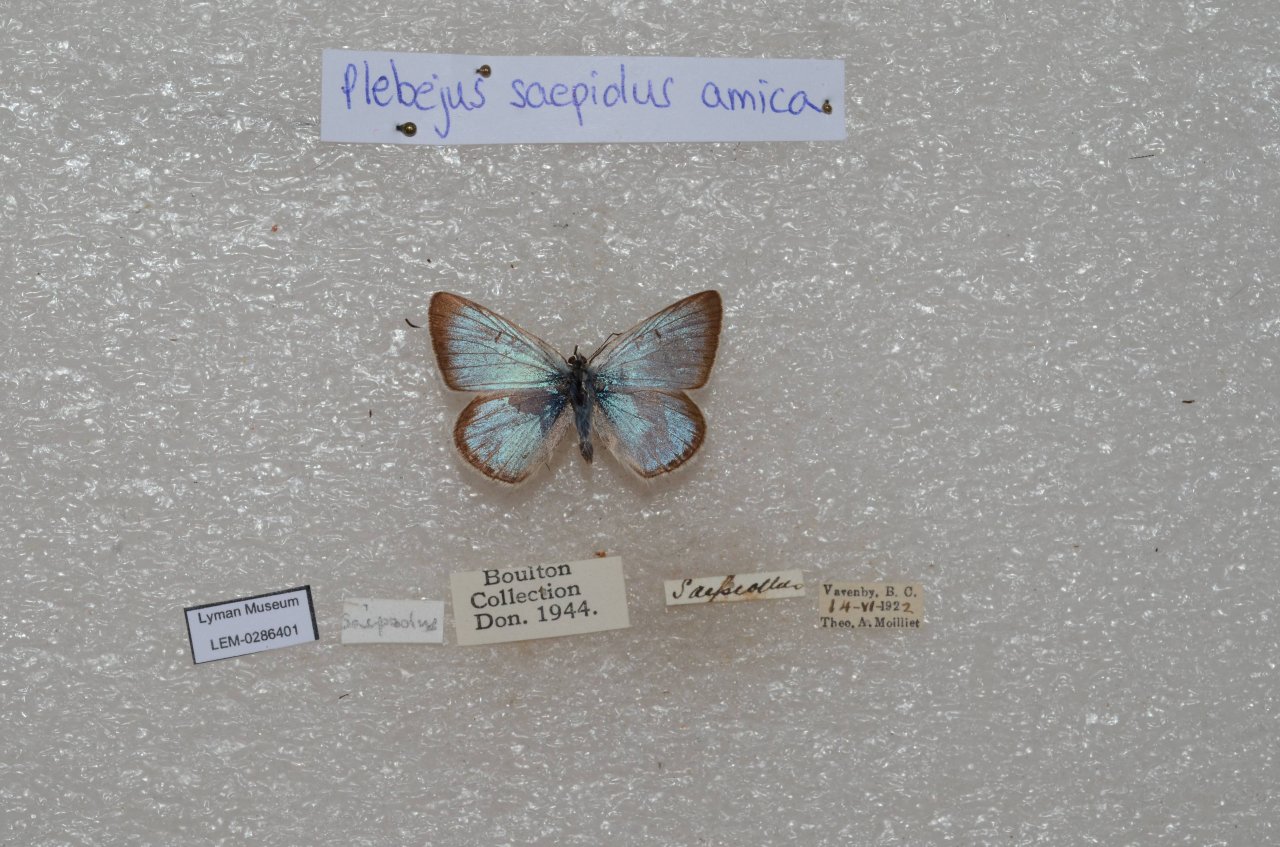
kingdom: Animalia
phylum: Arthropoda
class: Insecta
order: Lepidoptera
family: Lycaenidae
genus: Plebejus
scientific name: Plebejus saepiolus
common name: Greenish Blue
